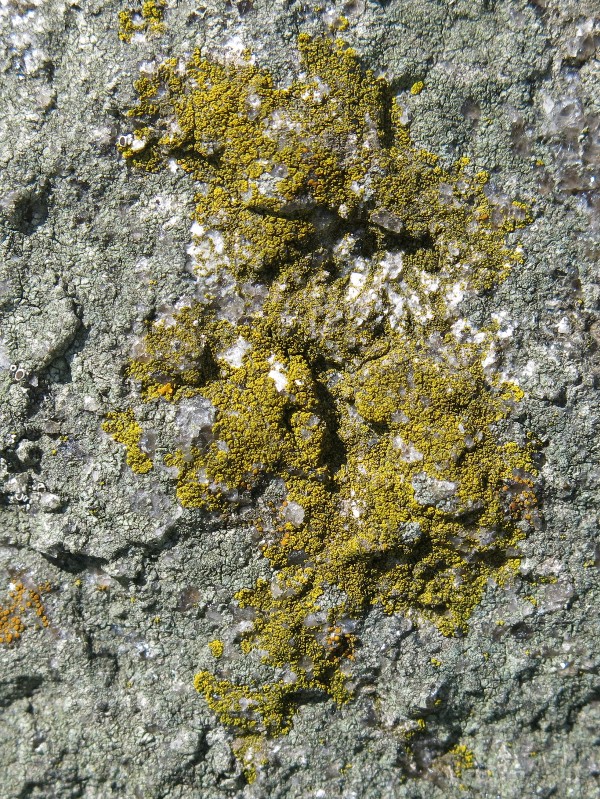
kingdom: Fungi
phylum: Ascomycota
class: Lecanoromycetes
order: Teloschistales
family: Teloschistaceae
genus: Flavoplaca
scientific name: Flavoplaca citrina
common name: støvet orangelav
